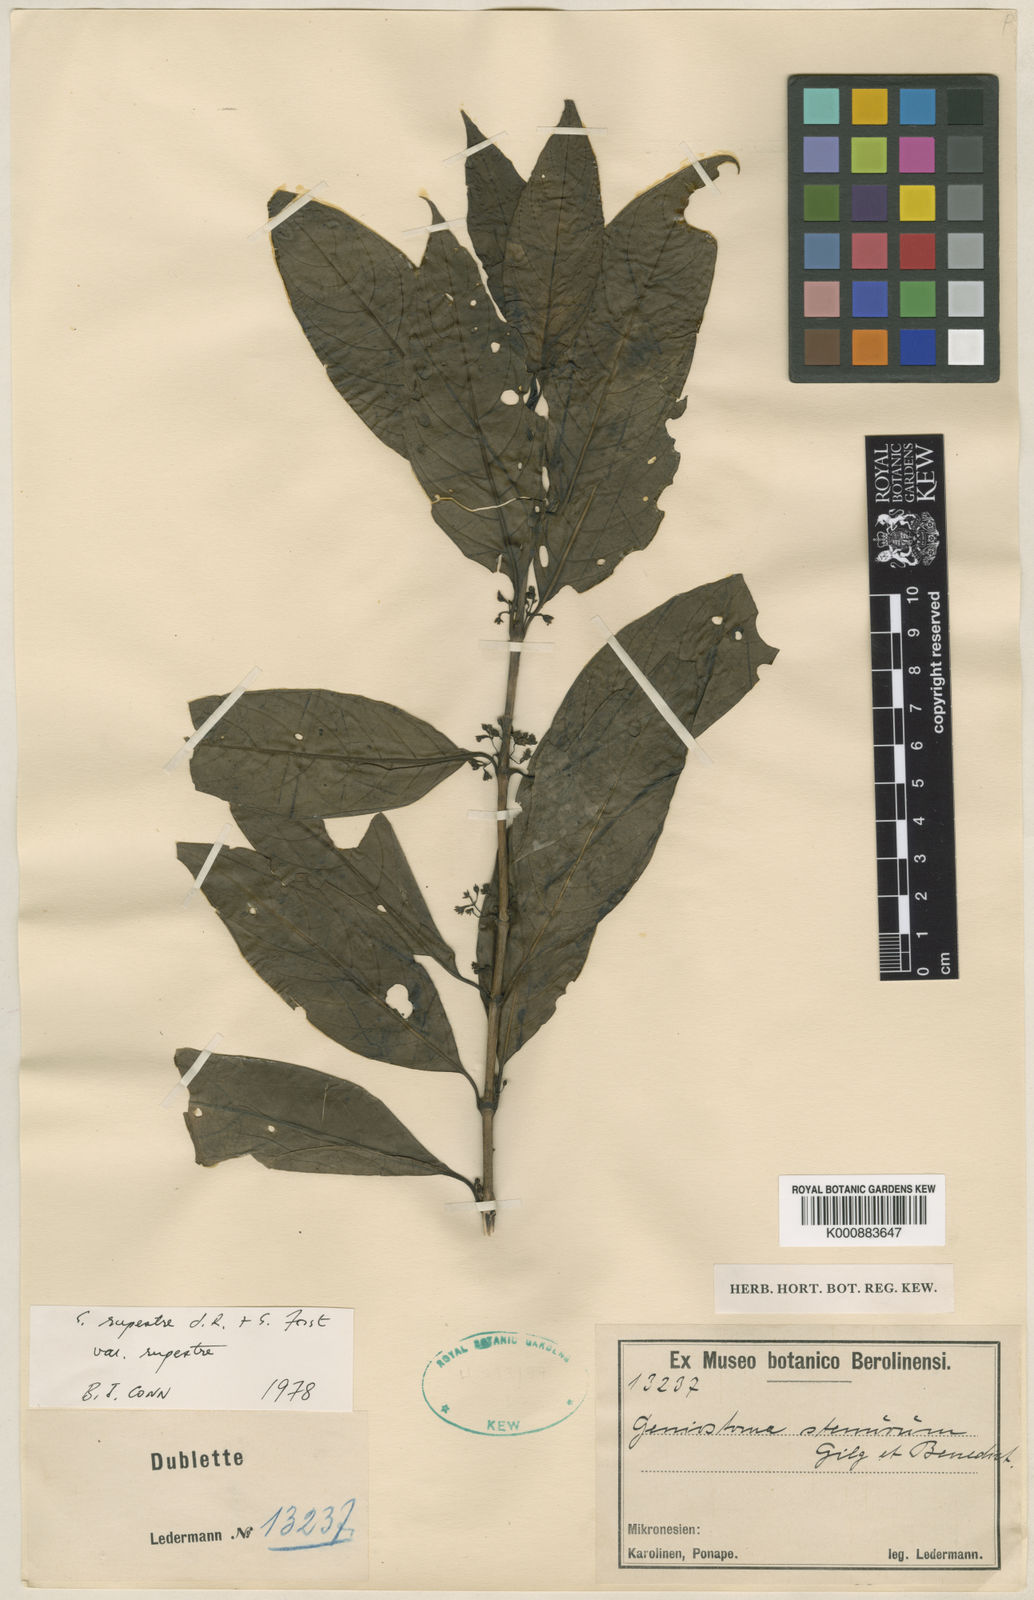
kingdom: Plantae
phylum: Tracheophyta
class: Magnoliopsida
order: Gentianales
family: Loganiaceae
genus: Geniostoma
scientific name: Geniostoma rupestre
